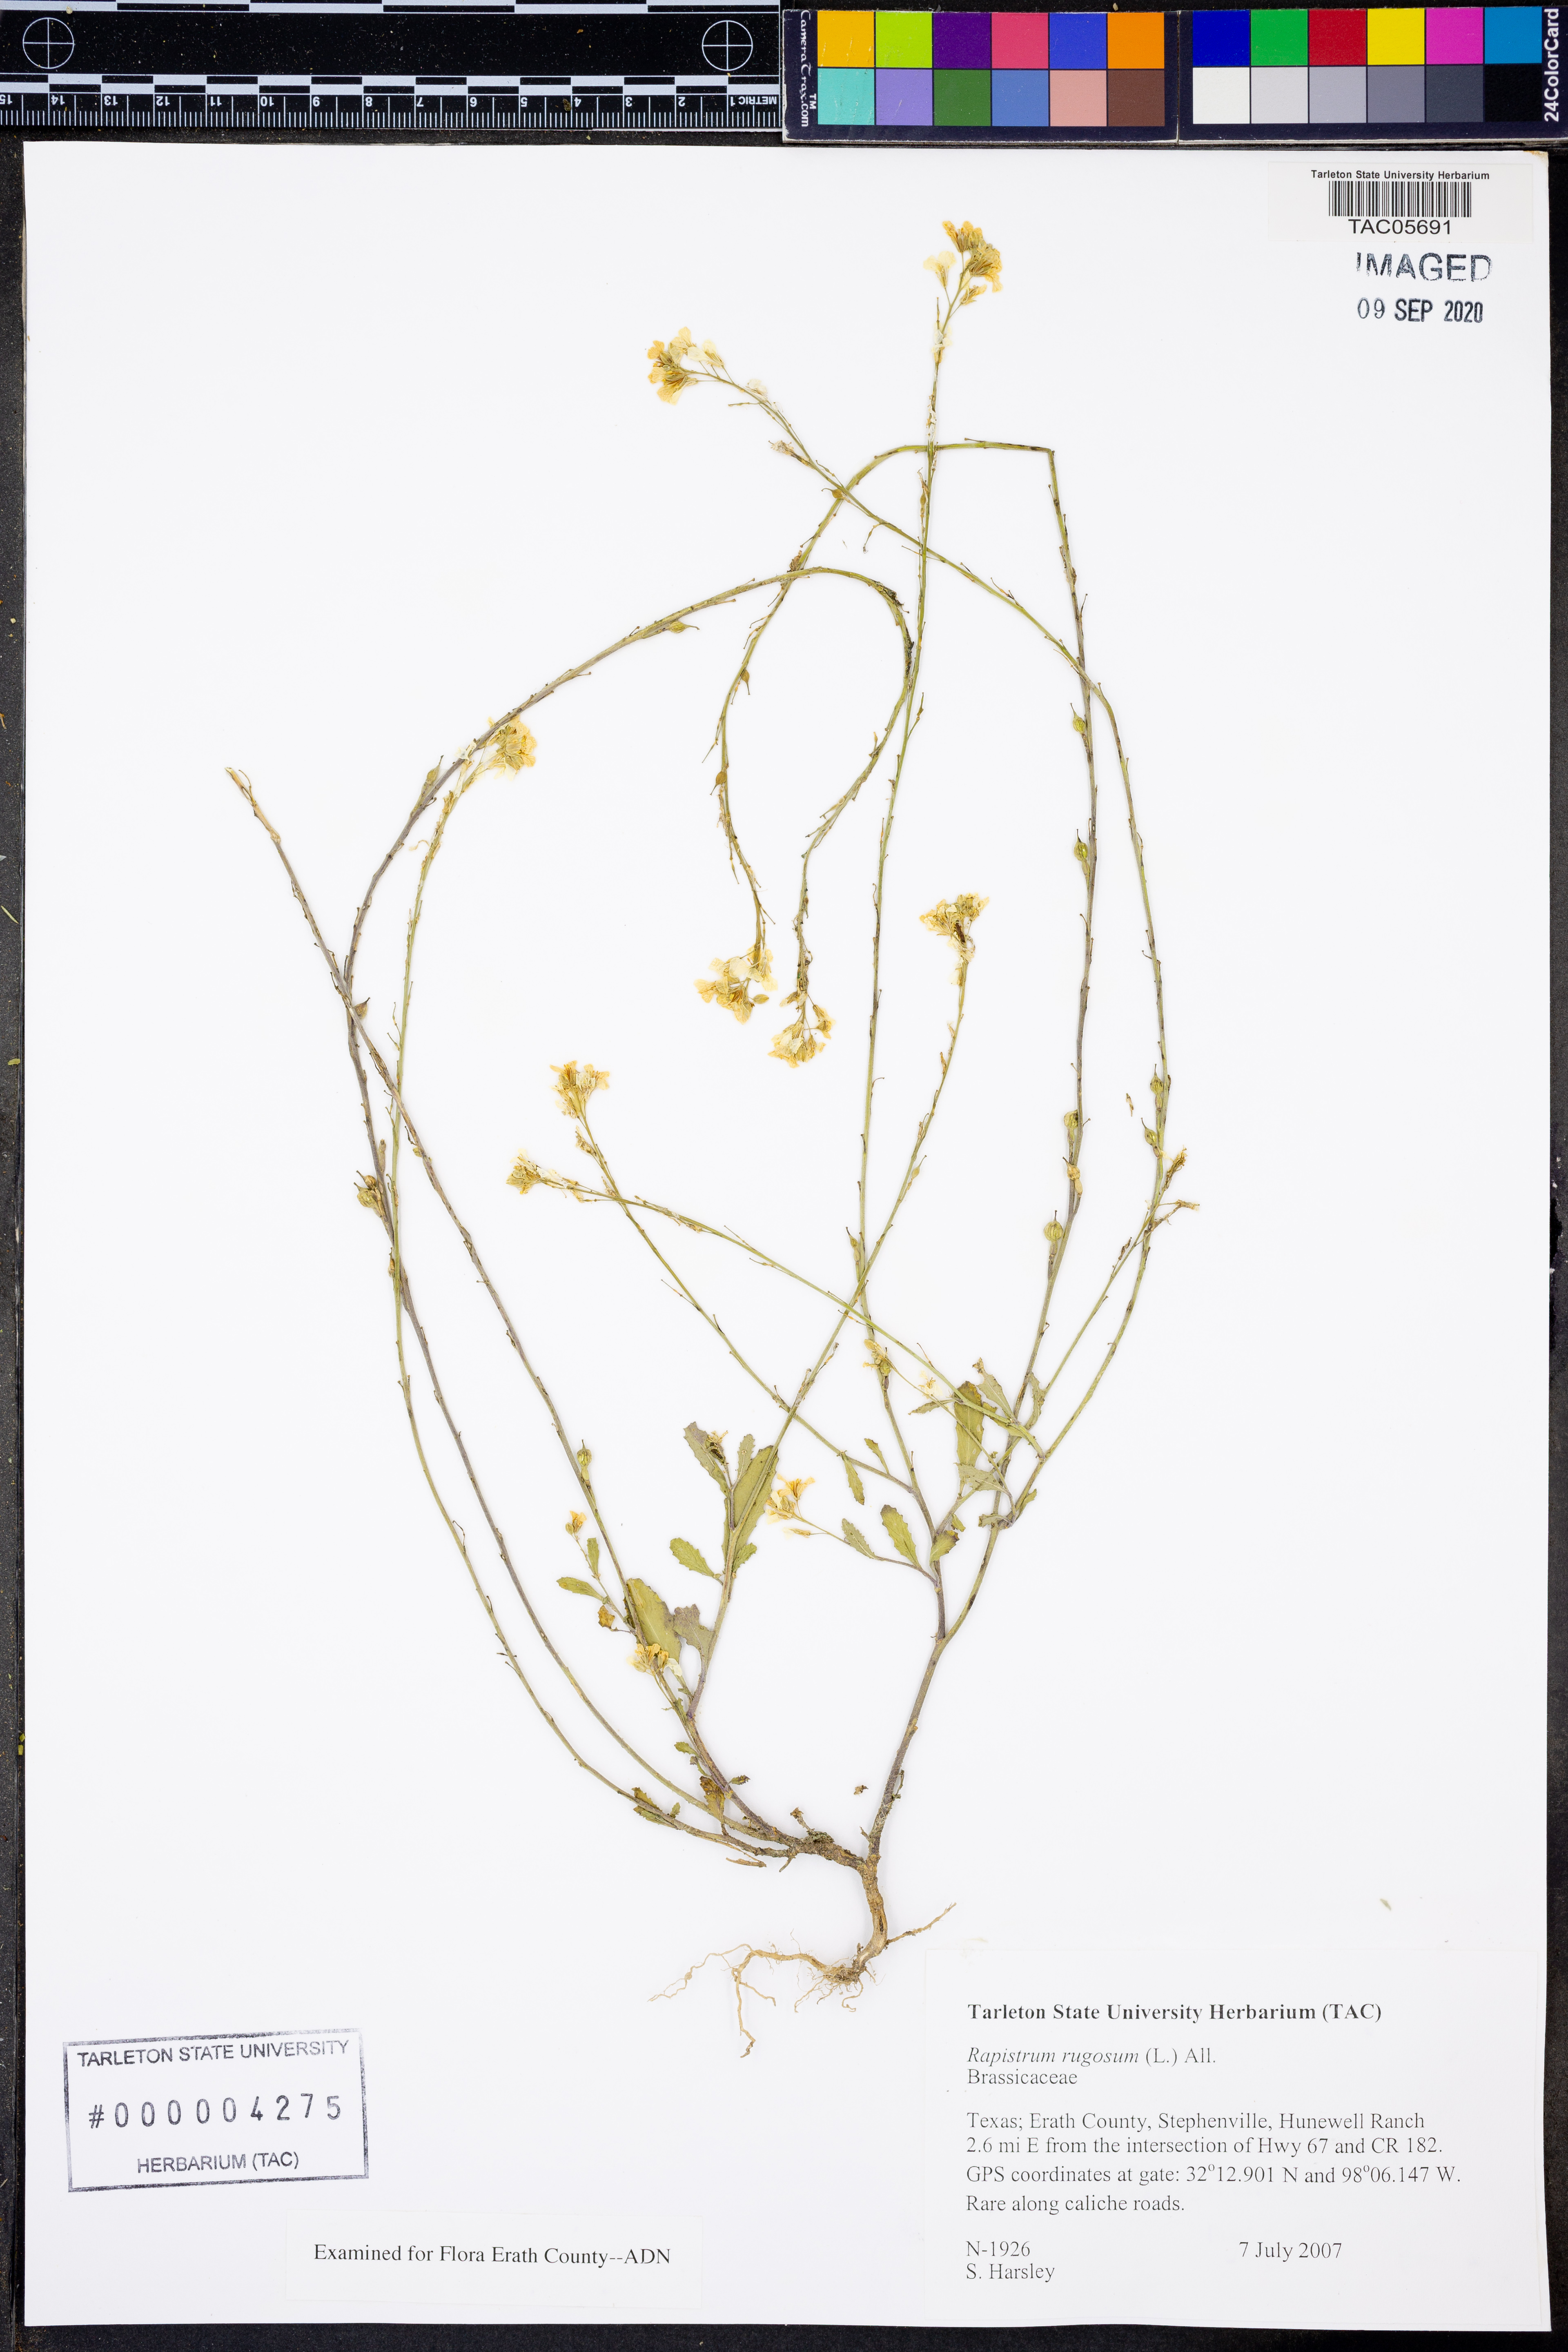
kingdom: Plantae
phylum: Tracheophyta
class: Magnoliopsida
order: Brassicales
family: Brassicaceae
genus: Rapistrum
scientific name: Rapistrum rugosum
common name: Annual bastardcabbage
